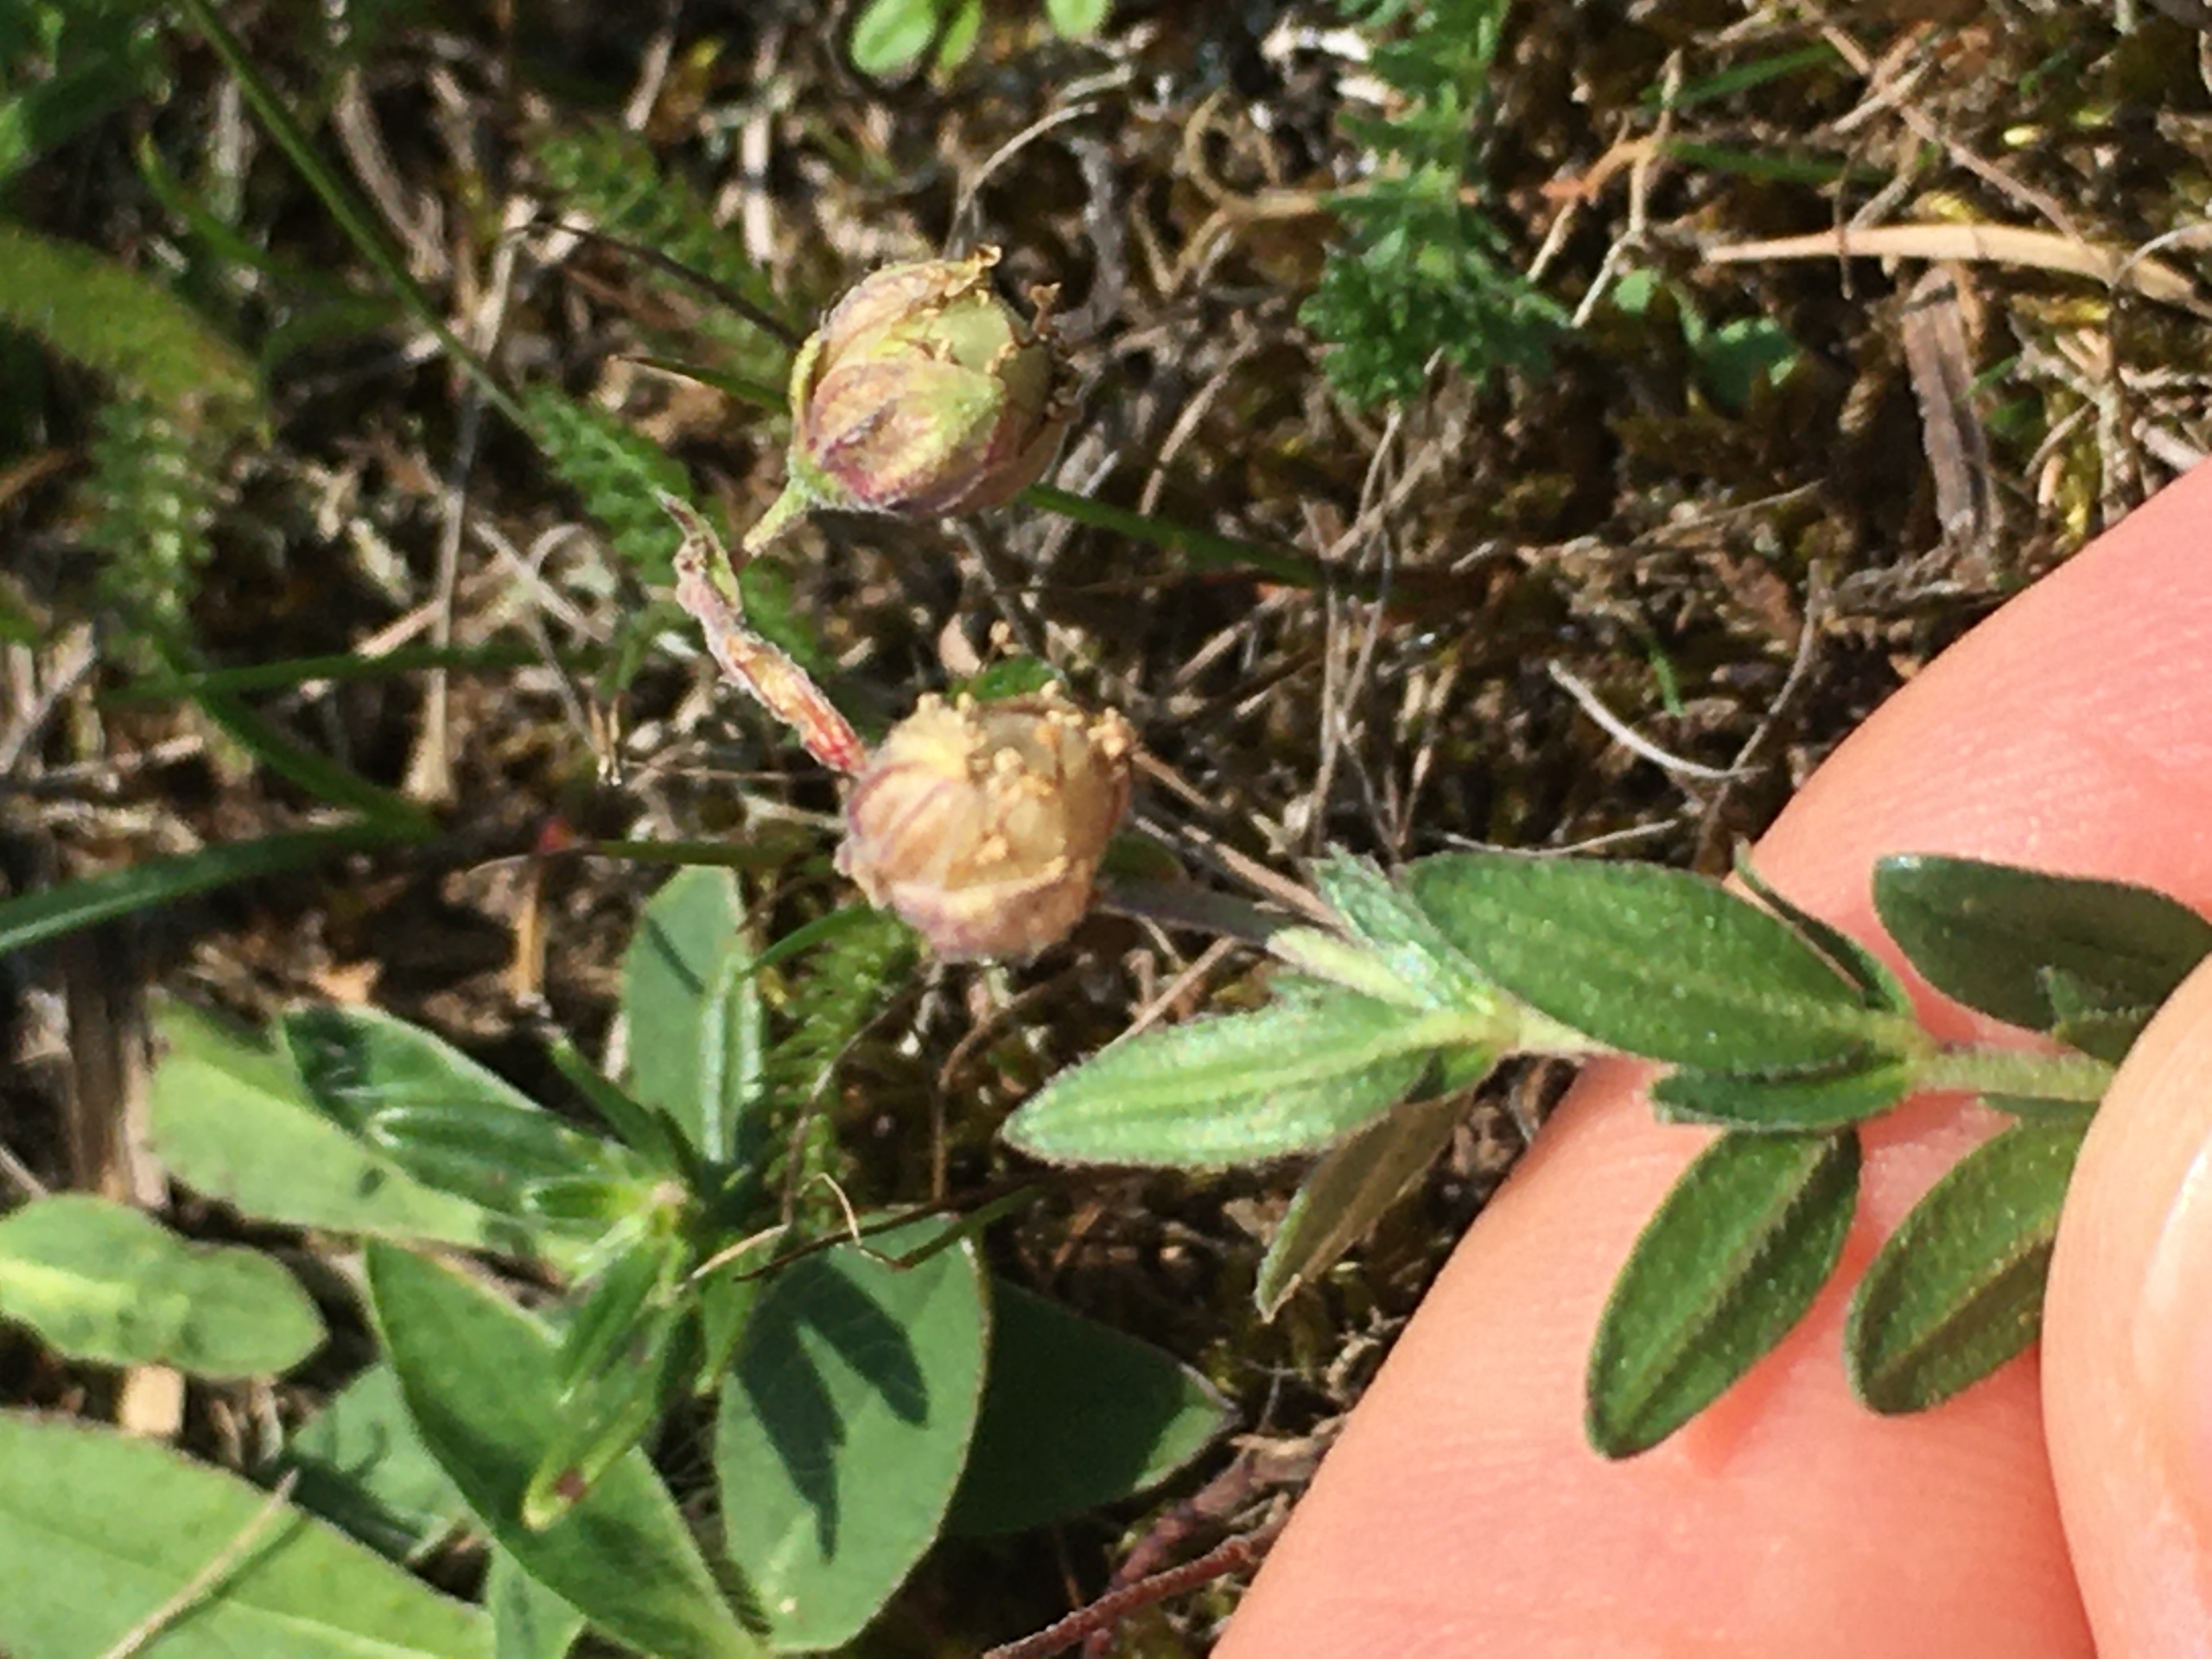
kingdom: Plantae
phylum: Tracheophyta
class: Magnoliopsida
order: Malvales
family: Cistaceae
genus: Helianthemum
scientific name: Helianthemum nummularium
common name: Bakke-soløje
